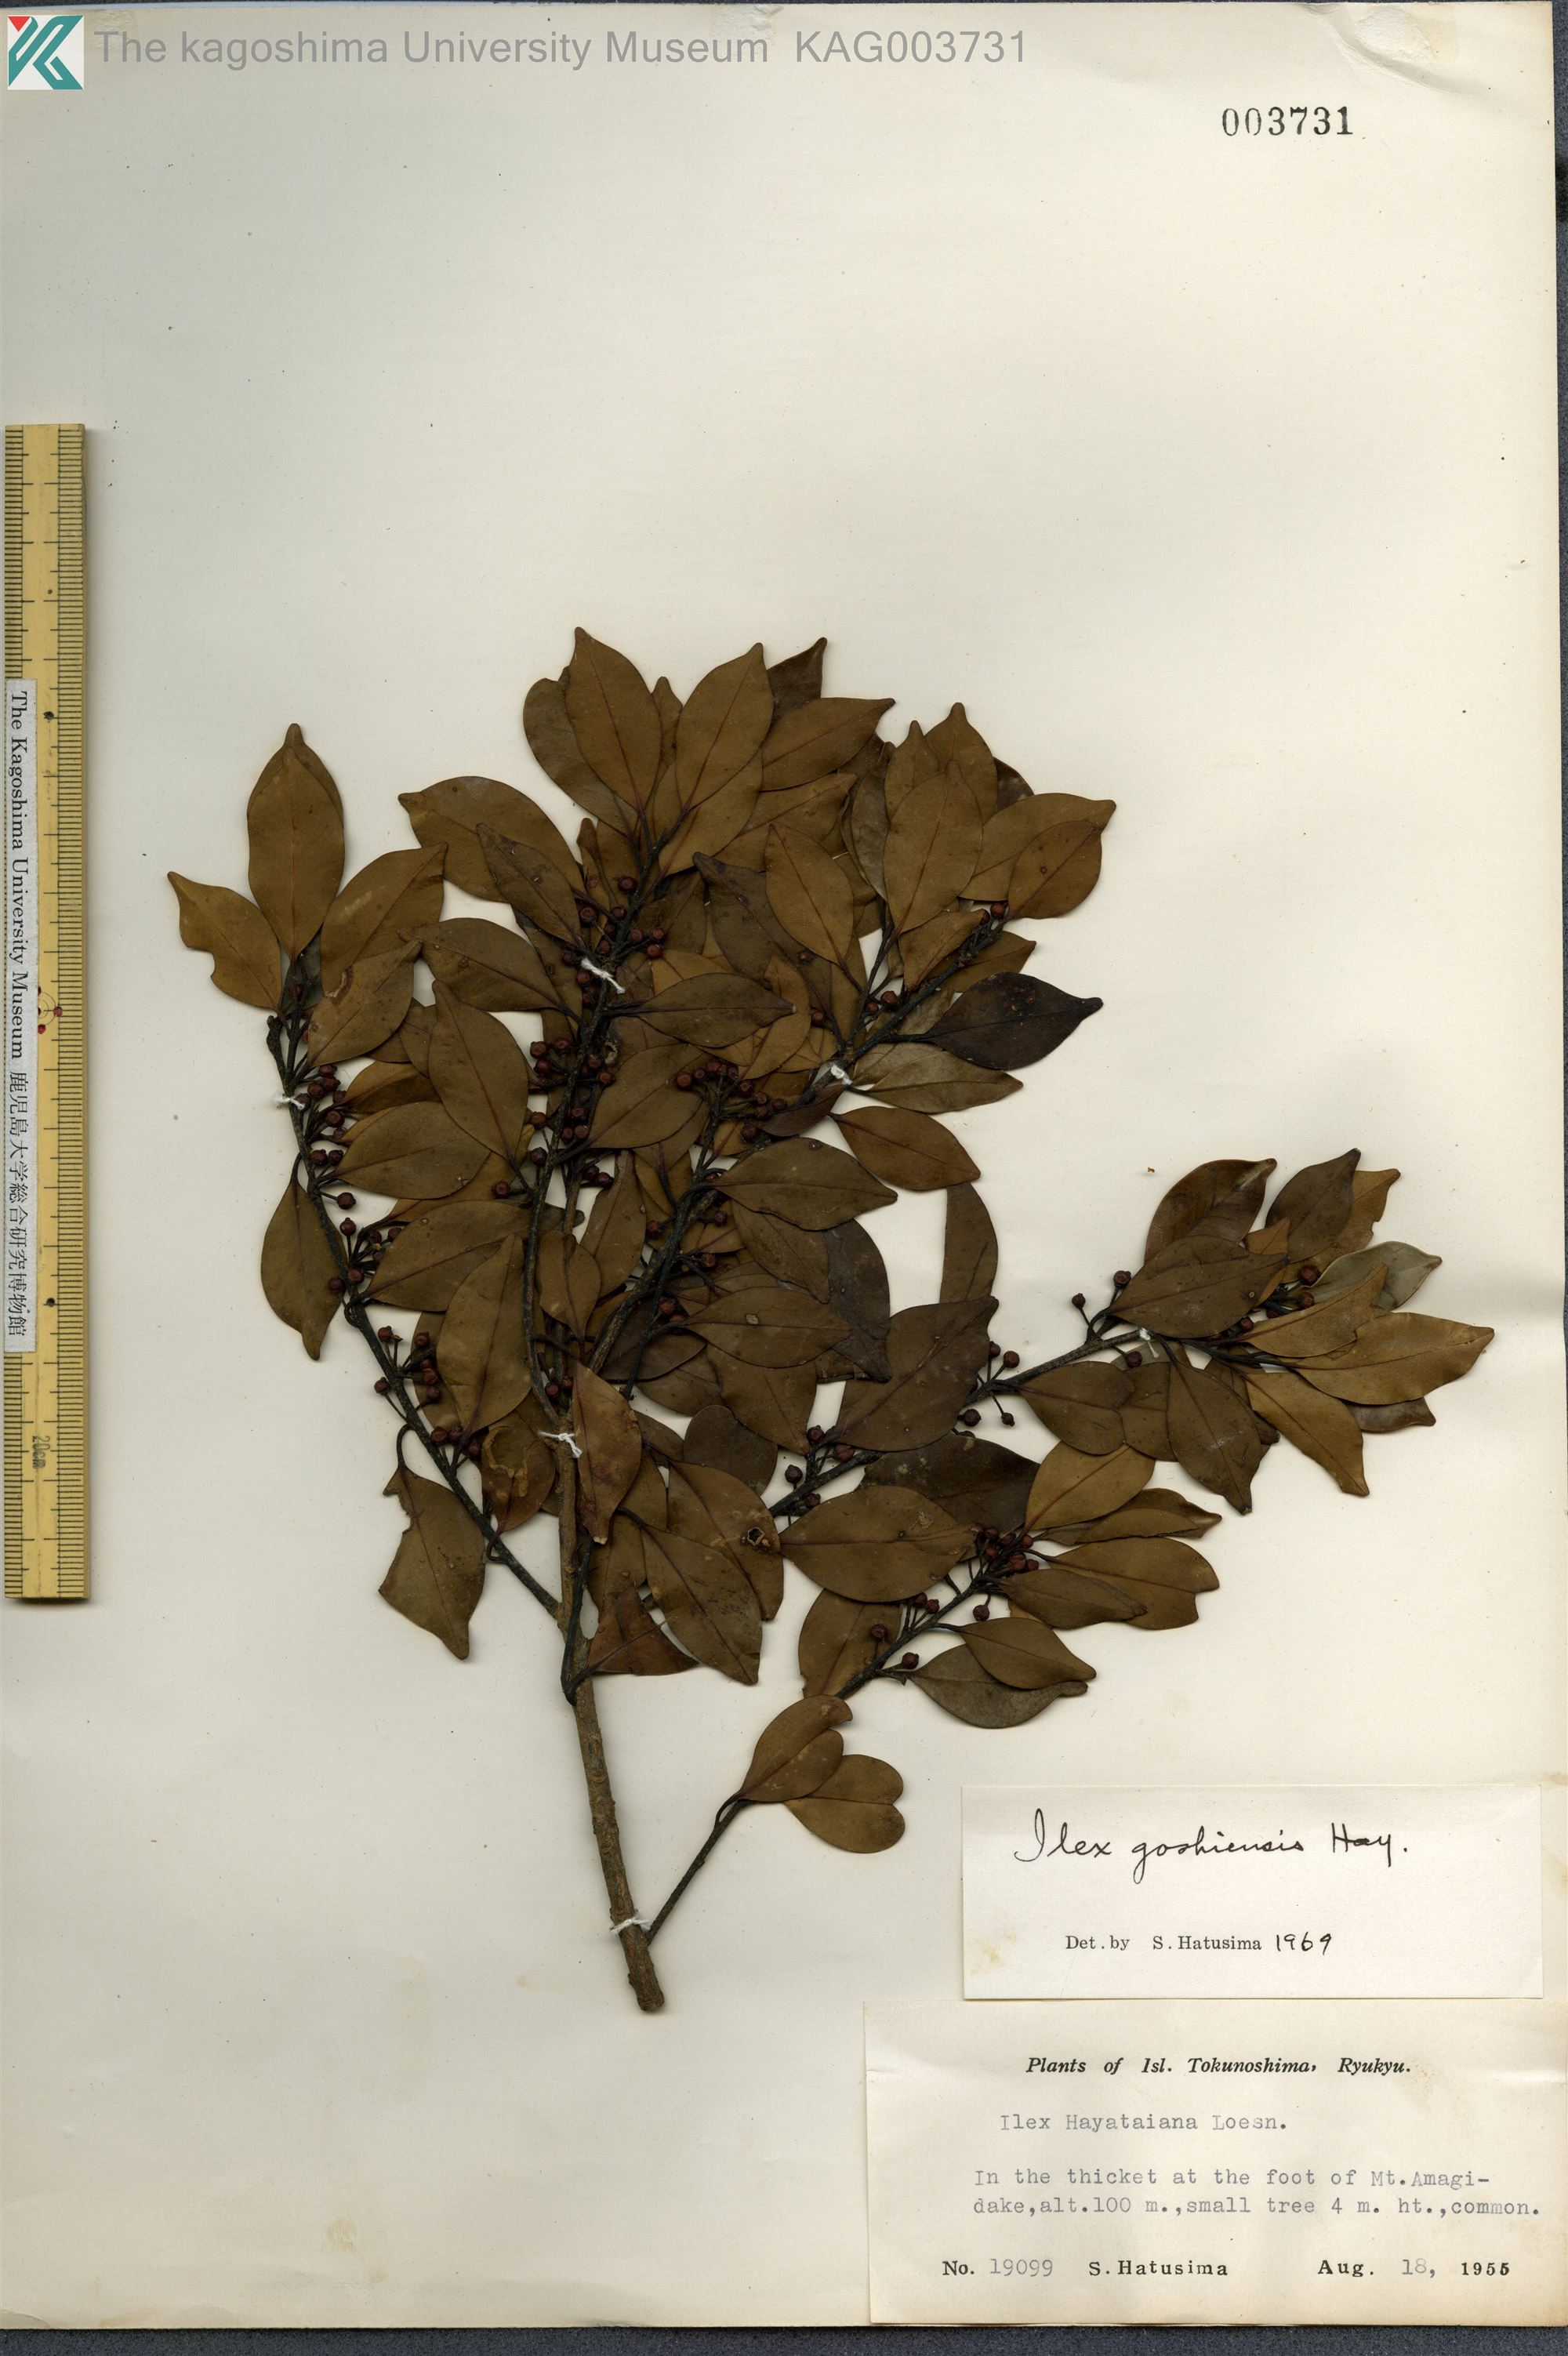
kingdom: Plantae
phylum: Tracheophyta
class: Magnoliopsida
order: Aquifoliales
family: Aquifoliaceae
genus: Ilex
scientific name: Ilex goshiensis
